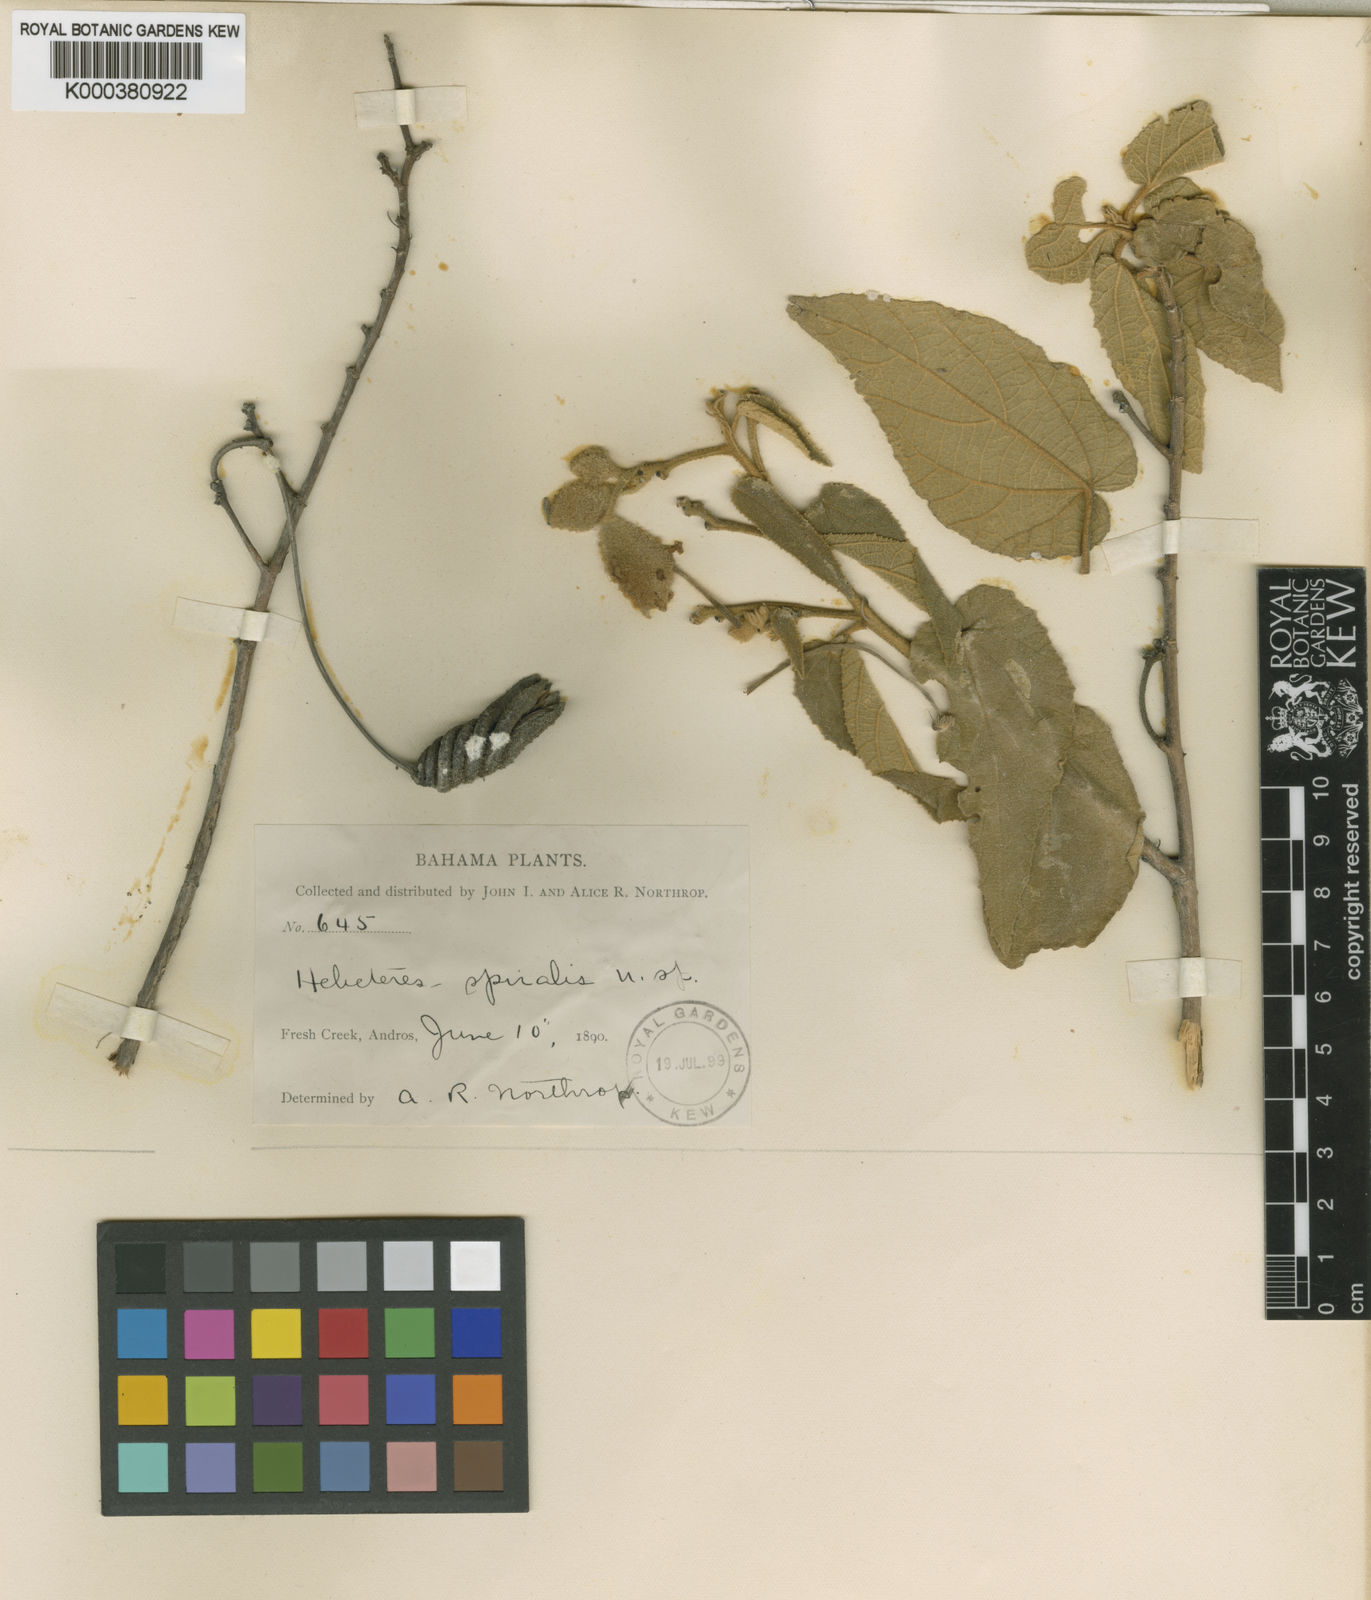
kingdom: Plantae
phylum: Tracheophyta
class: Magnoliopsida
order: Malvales
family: Malvaceae
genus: Helicteres
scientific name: Helicteres jamaicensis
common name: Cowbush
